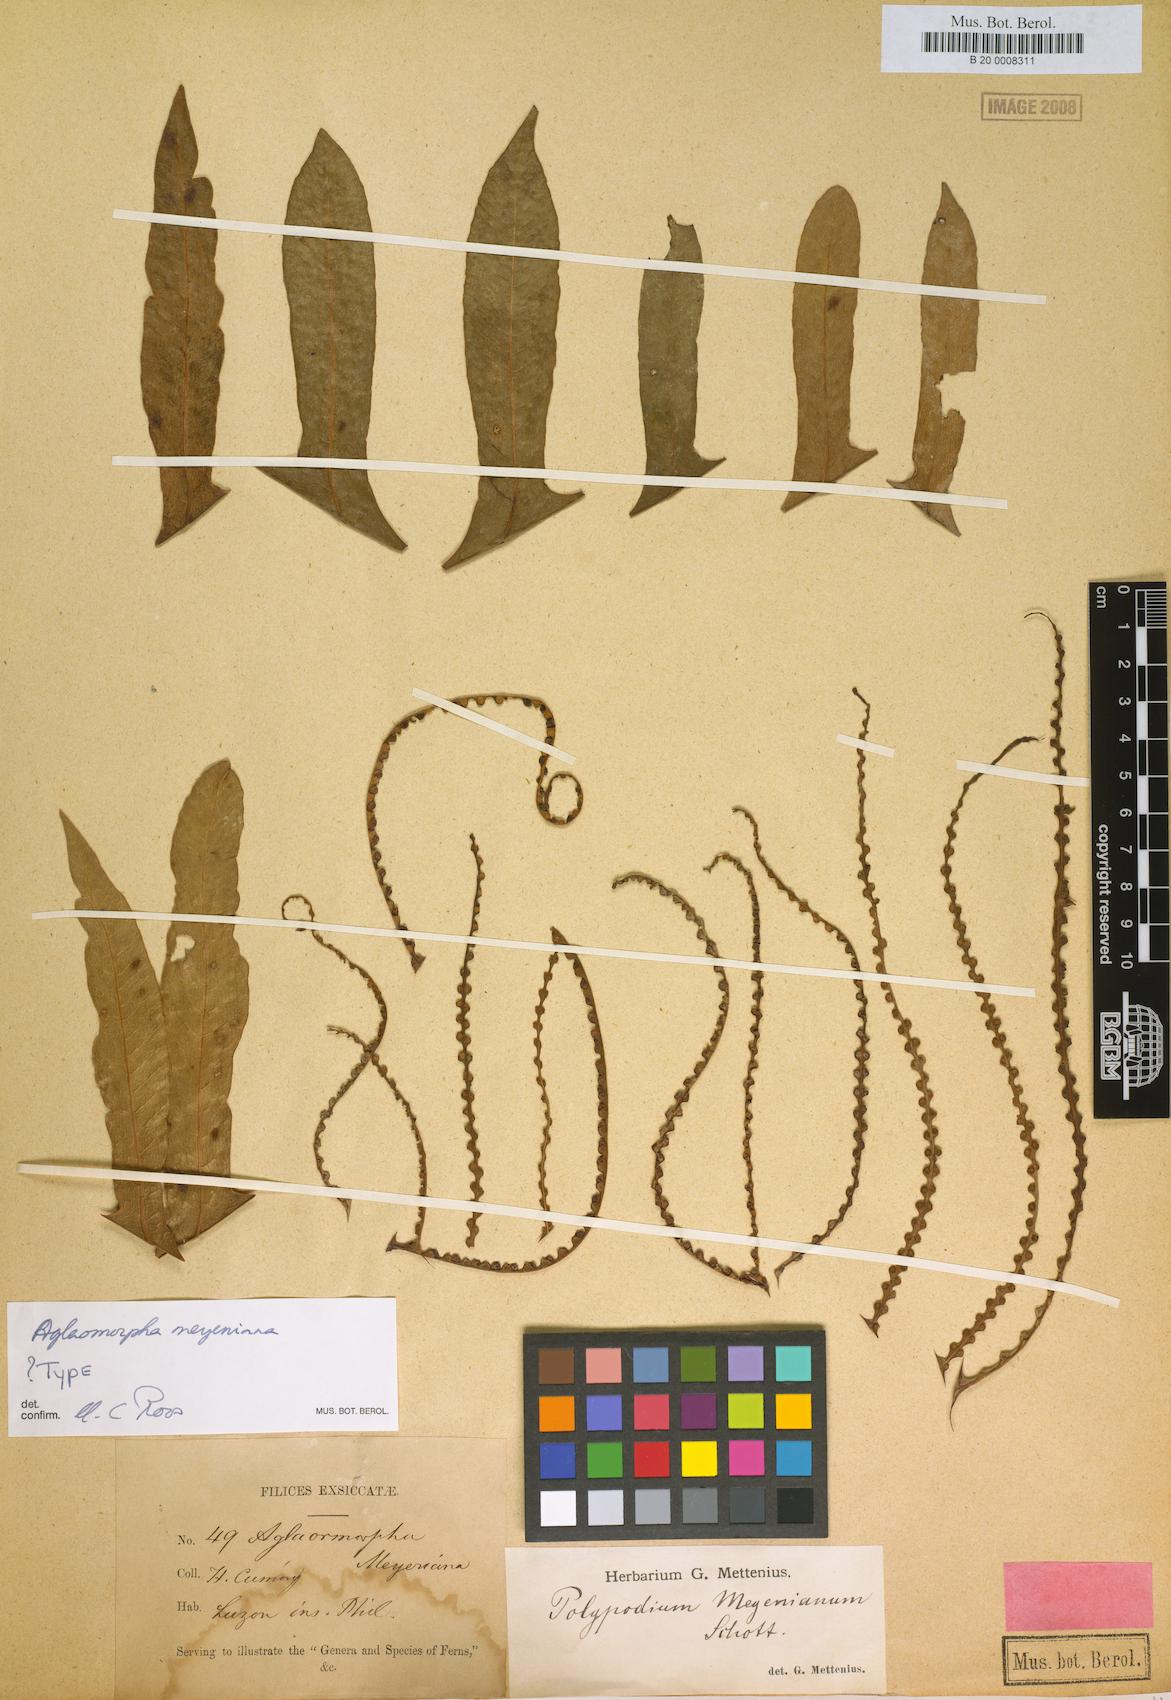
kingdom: Plantae
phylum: Tracheophyta
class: Polypodiopsida
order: Polypodiales
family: Polypodiaceae
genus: Drynaria
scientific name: Drynaria meyeniana
